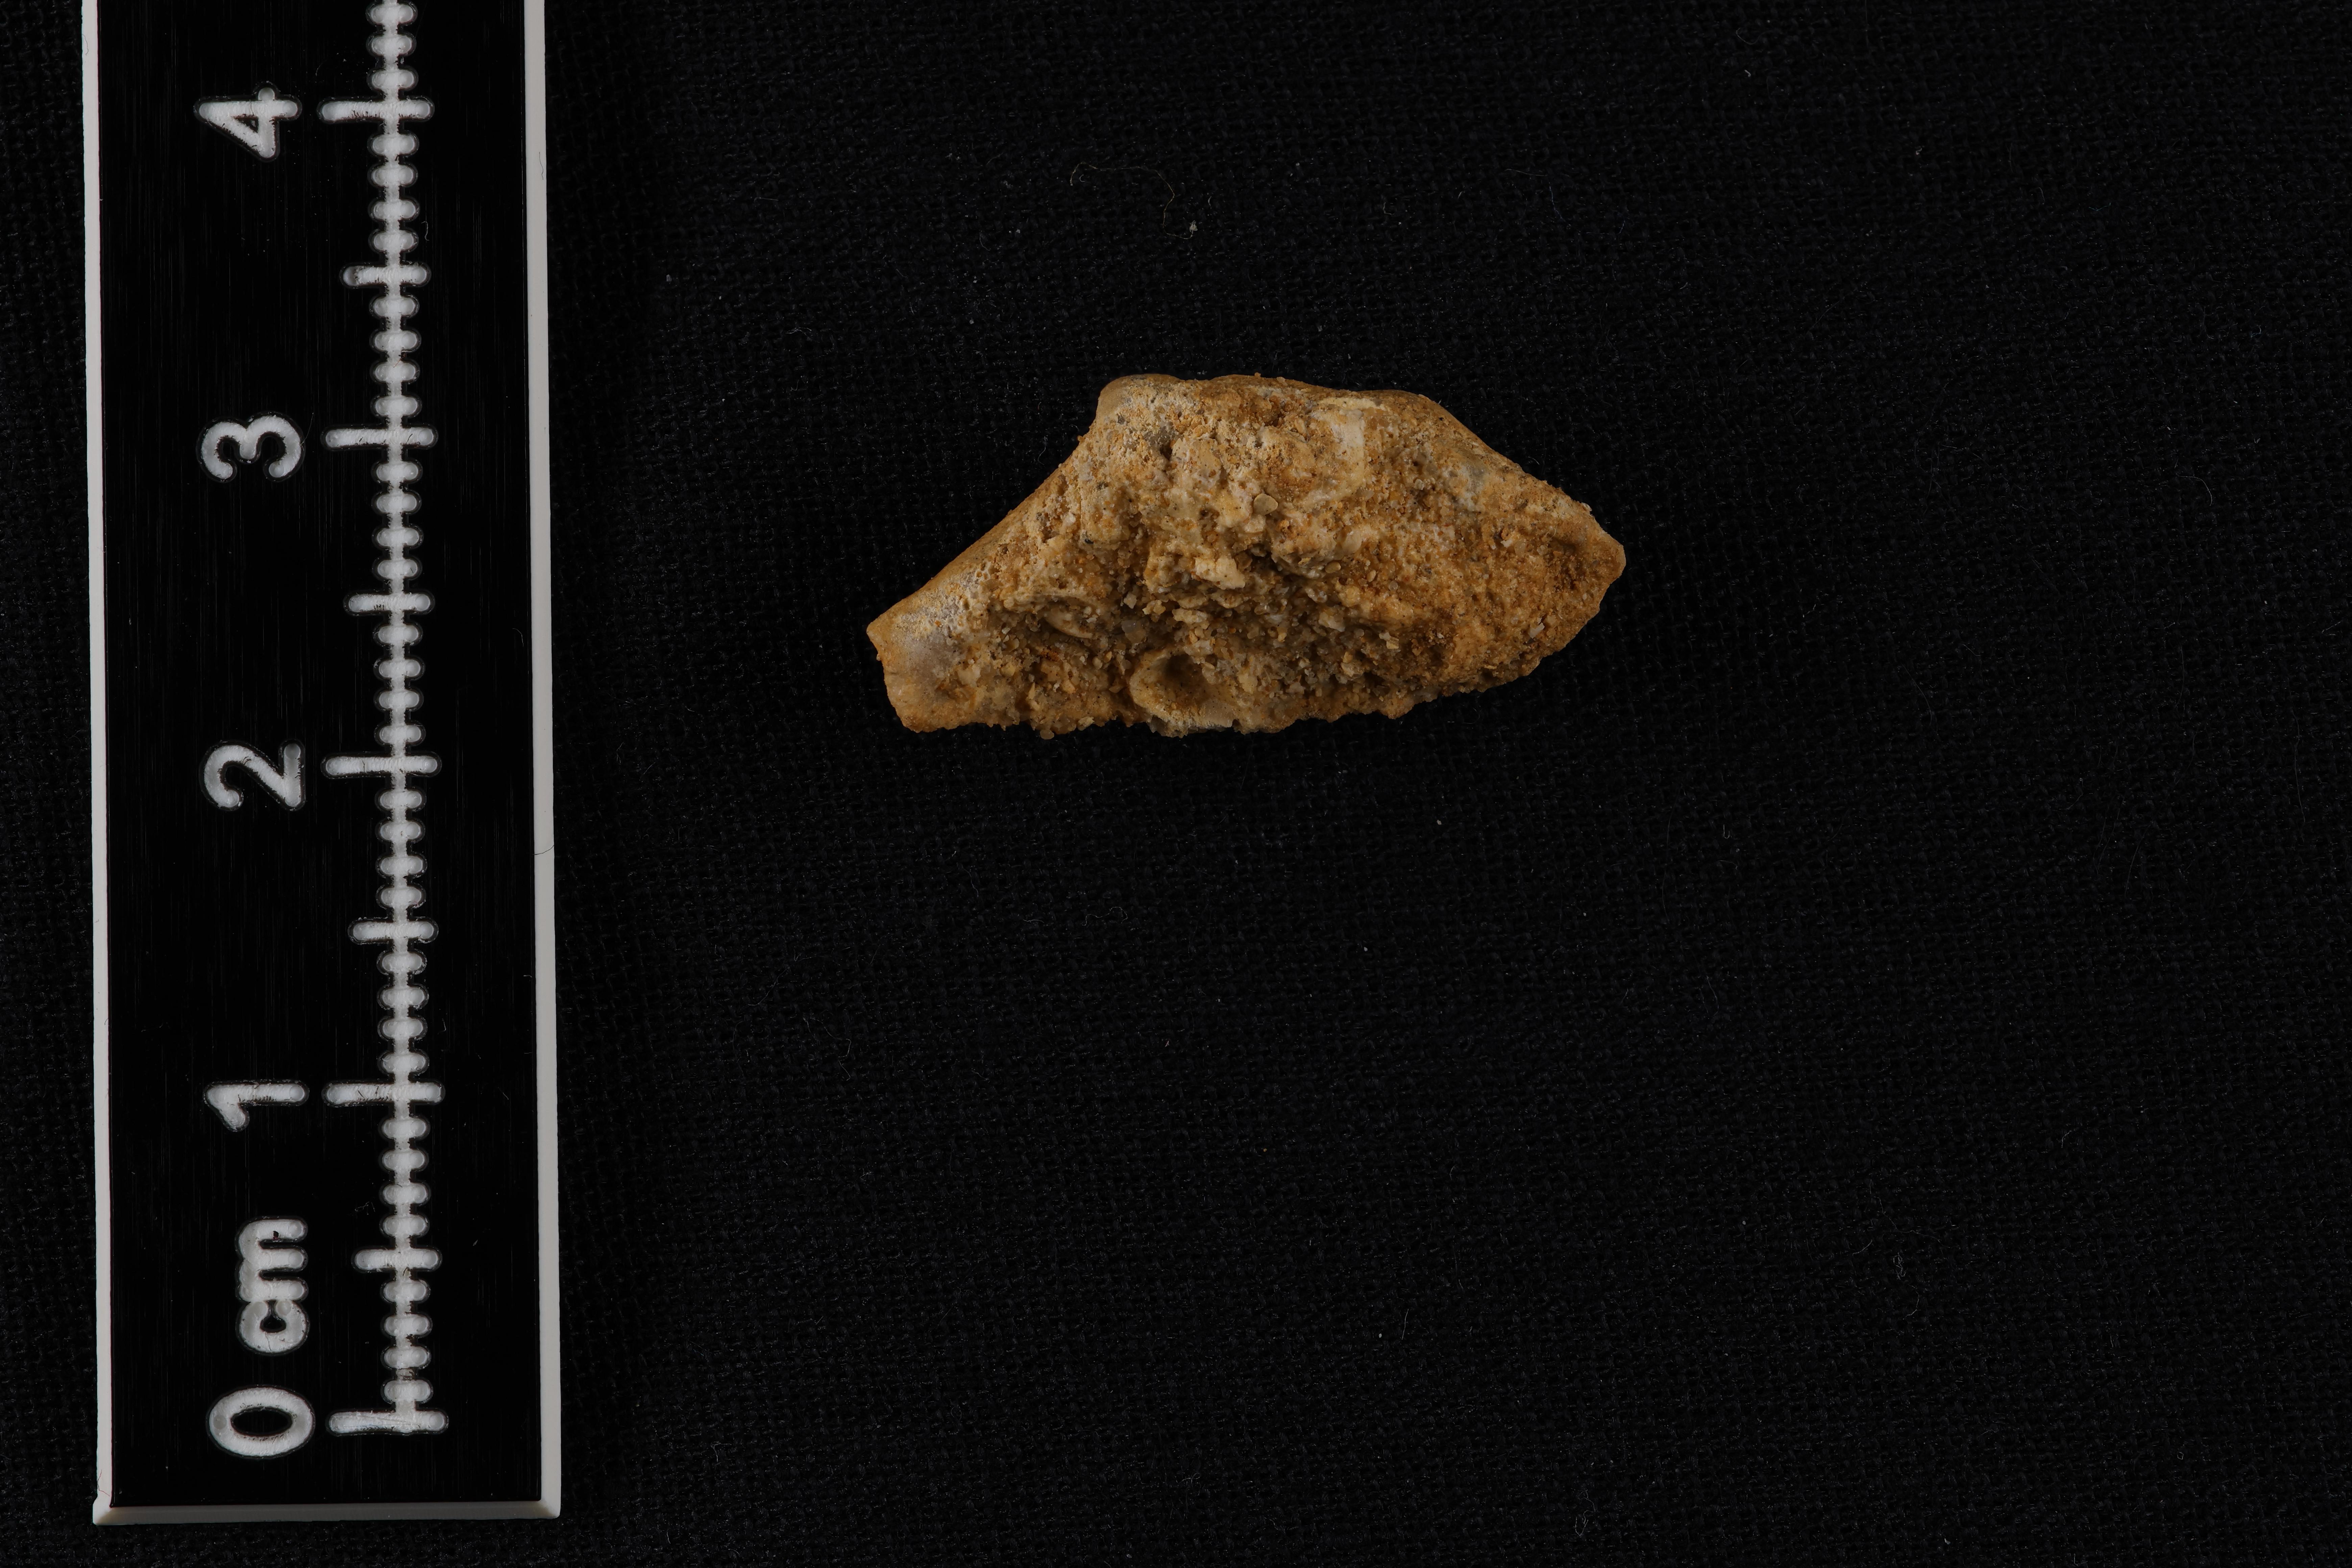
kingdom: Animalia
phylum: Mollusca
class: Bivalvia
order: Cardiida
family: Tancrediidae
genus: Tancredia
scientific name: Tancredia
